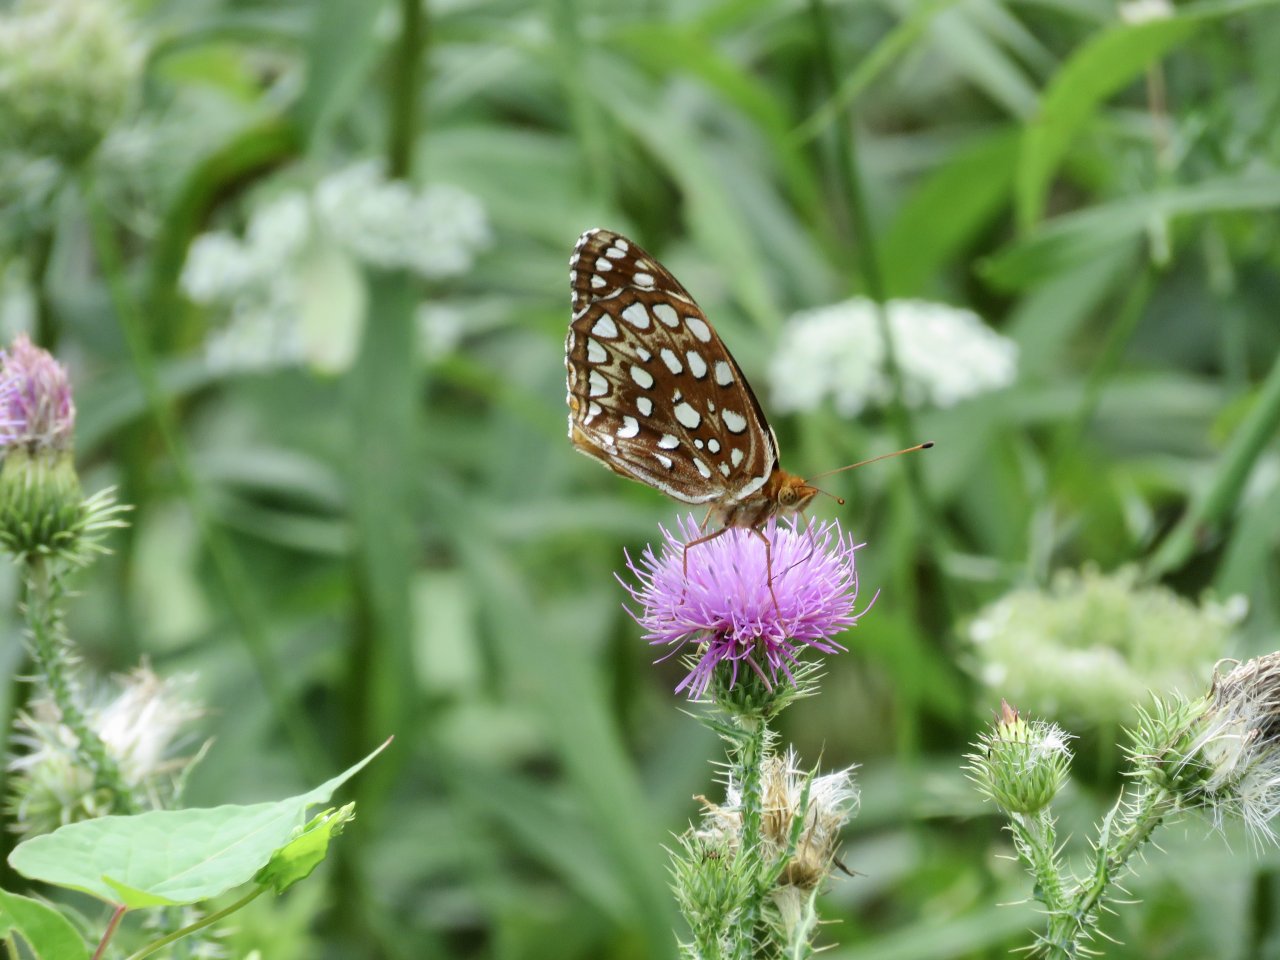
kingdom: Animalia
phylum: Arthropoda
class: Insecta
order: Lepidoptera
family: Nymphalidae
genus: Speyeria
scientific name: Speyeria aphrodite
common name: Aphrodite Fritillary
